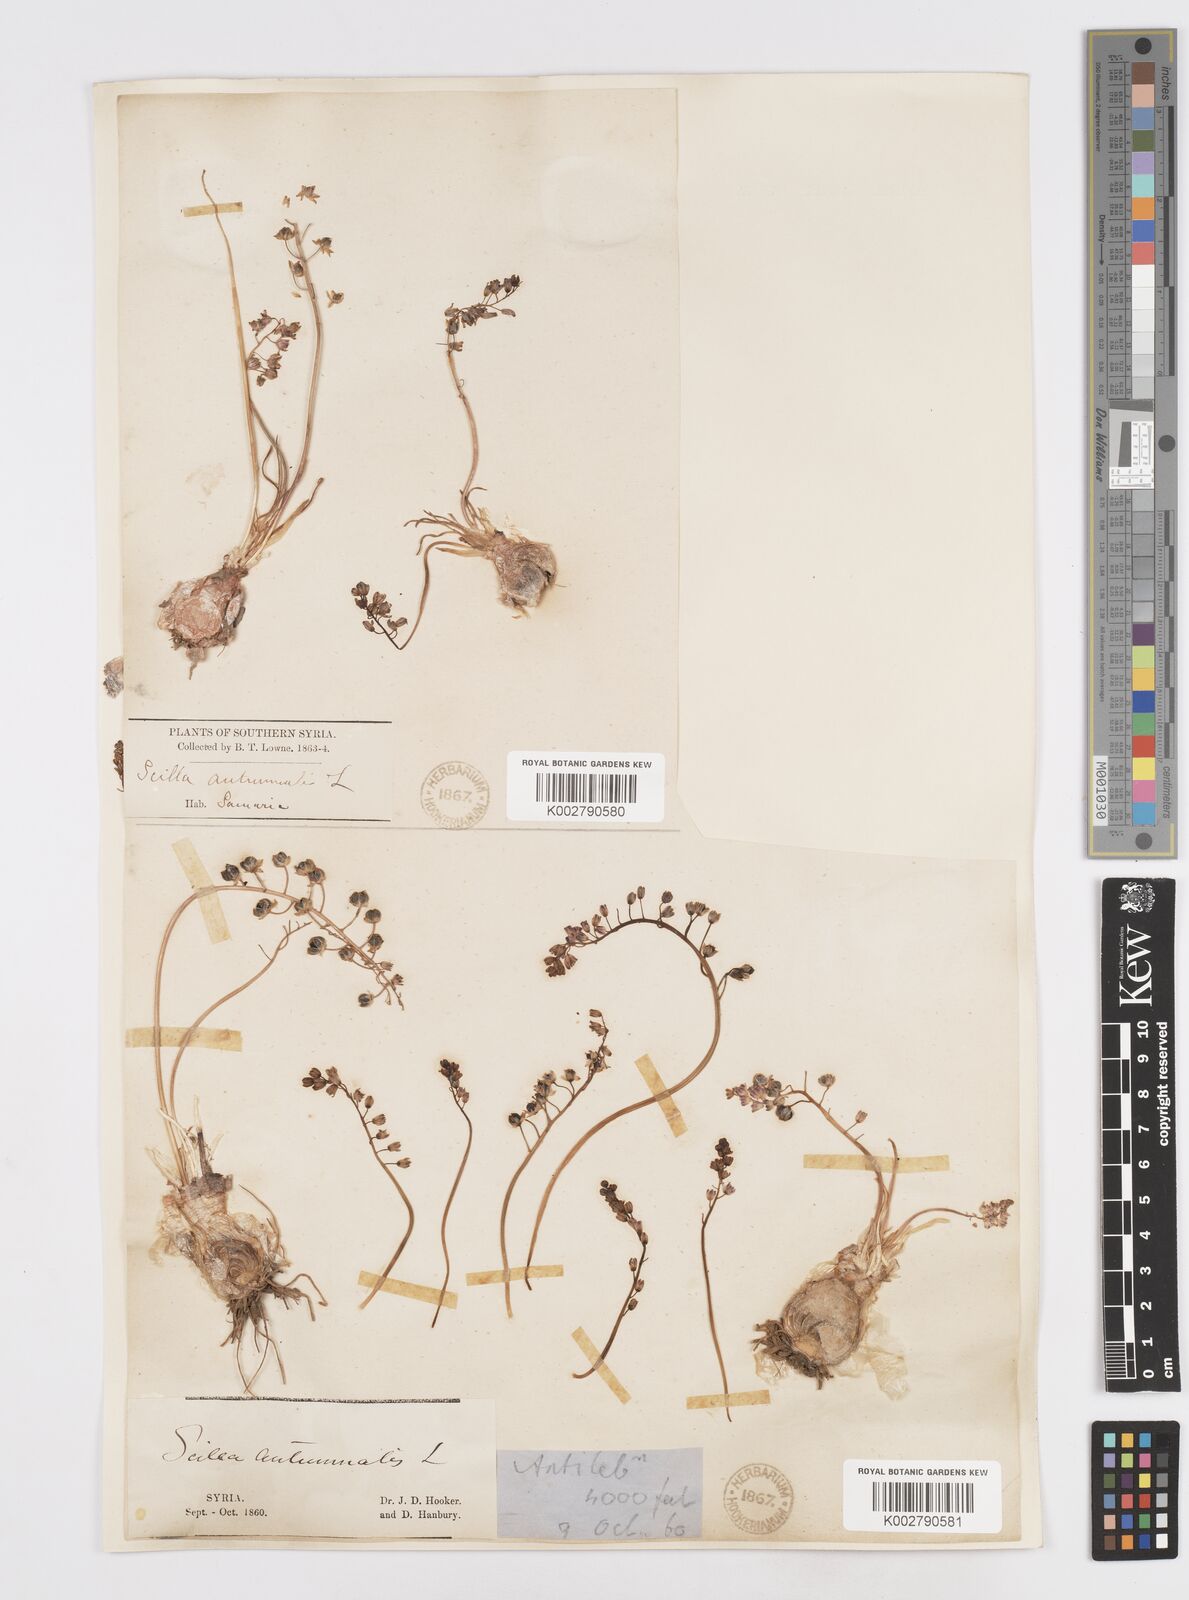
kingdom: Plantae
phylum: Tracheophyta
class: Liliopsida
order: Asparagales
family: Asparagaceae
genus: Prospero
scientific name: Prospero autumnale
